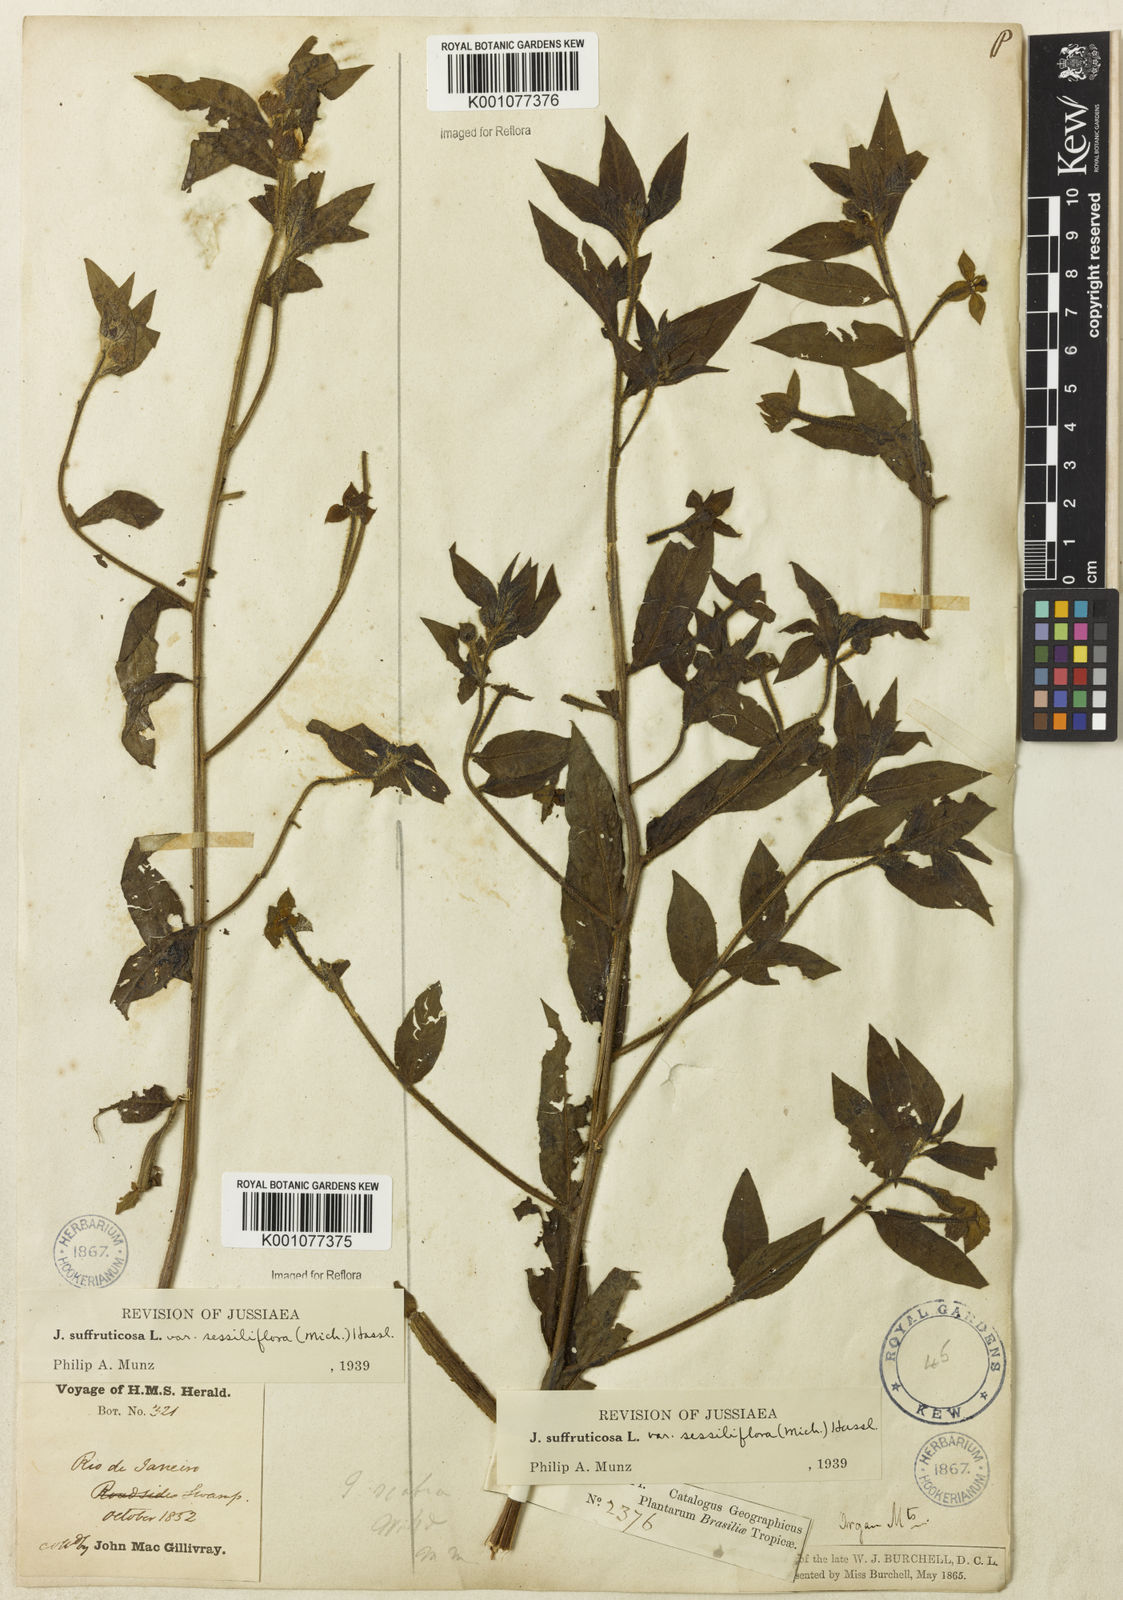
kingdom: Plantae
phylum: Tracheophyta
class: Magnoliopsida
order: Myrtales
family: Onagraceae
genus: Ludwigia
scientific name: Ludwigia octovalvis
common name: Water-primrose
